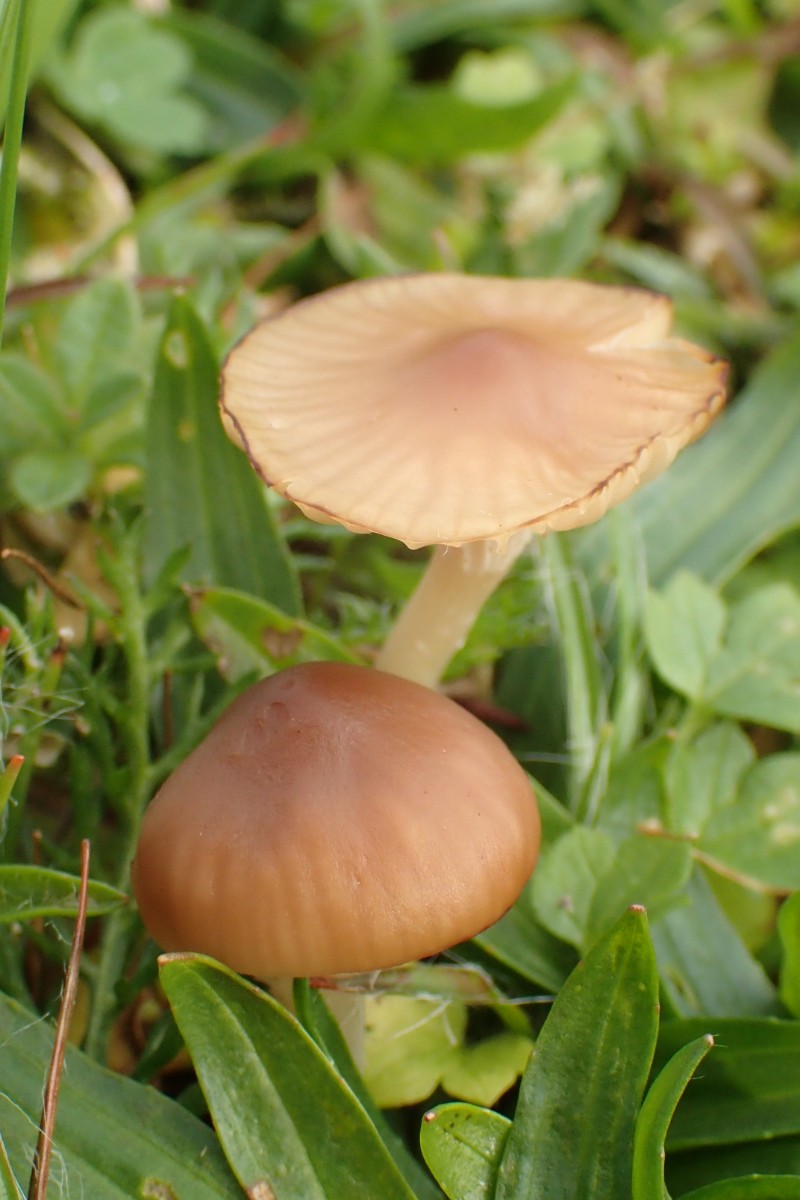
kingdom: Fungi
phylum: Basidiomycota
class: Agaricomycetes
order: Agaricales
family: Hygrophoraceae
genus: Cuphophyllus
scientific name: Cuphophyllus colemannianus
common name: rødbrun vokshat
